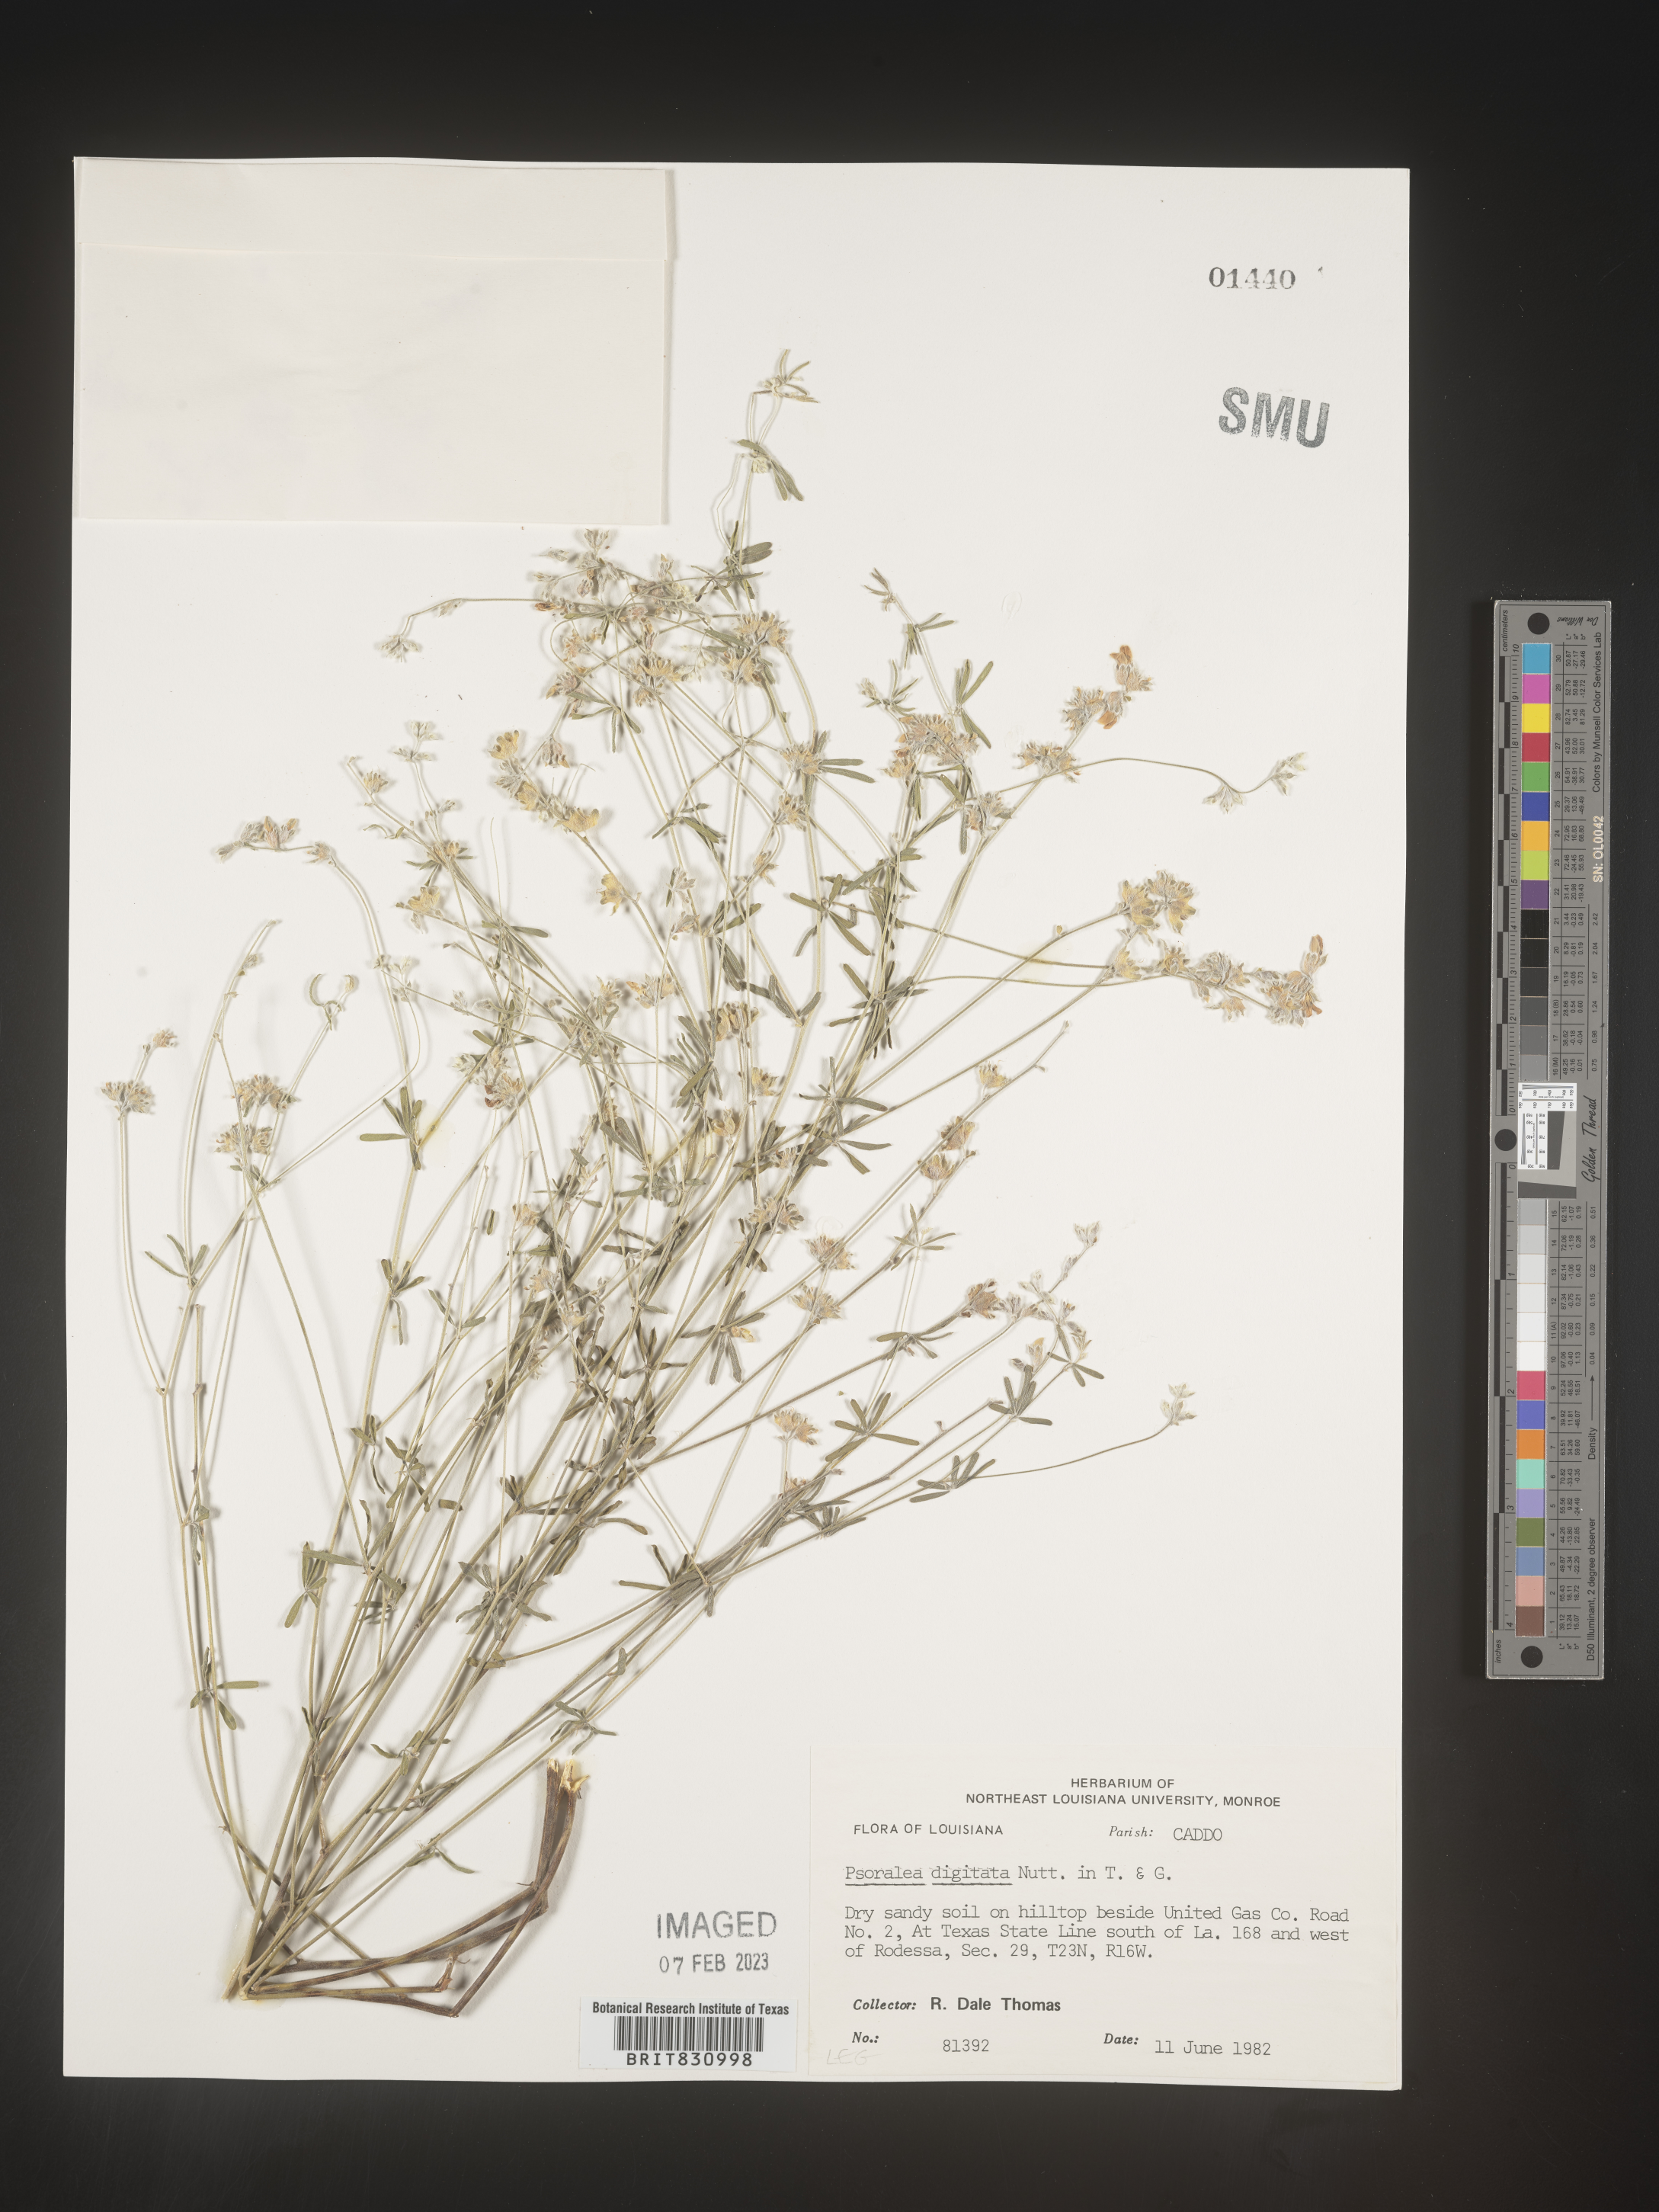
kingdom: Plantae
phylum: Tracheophyta
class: Magnoliopsida
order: Fabales
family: Fabaceae
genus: Pediomelum
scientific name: Pediomelum digitatum
